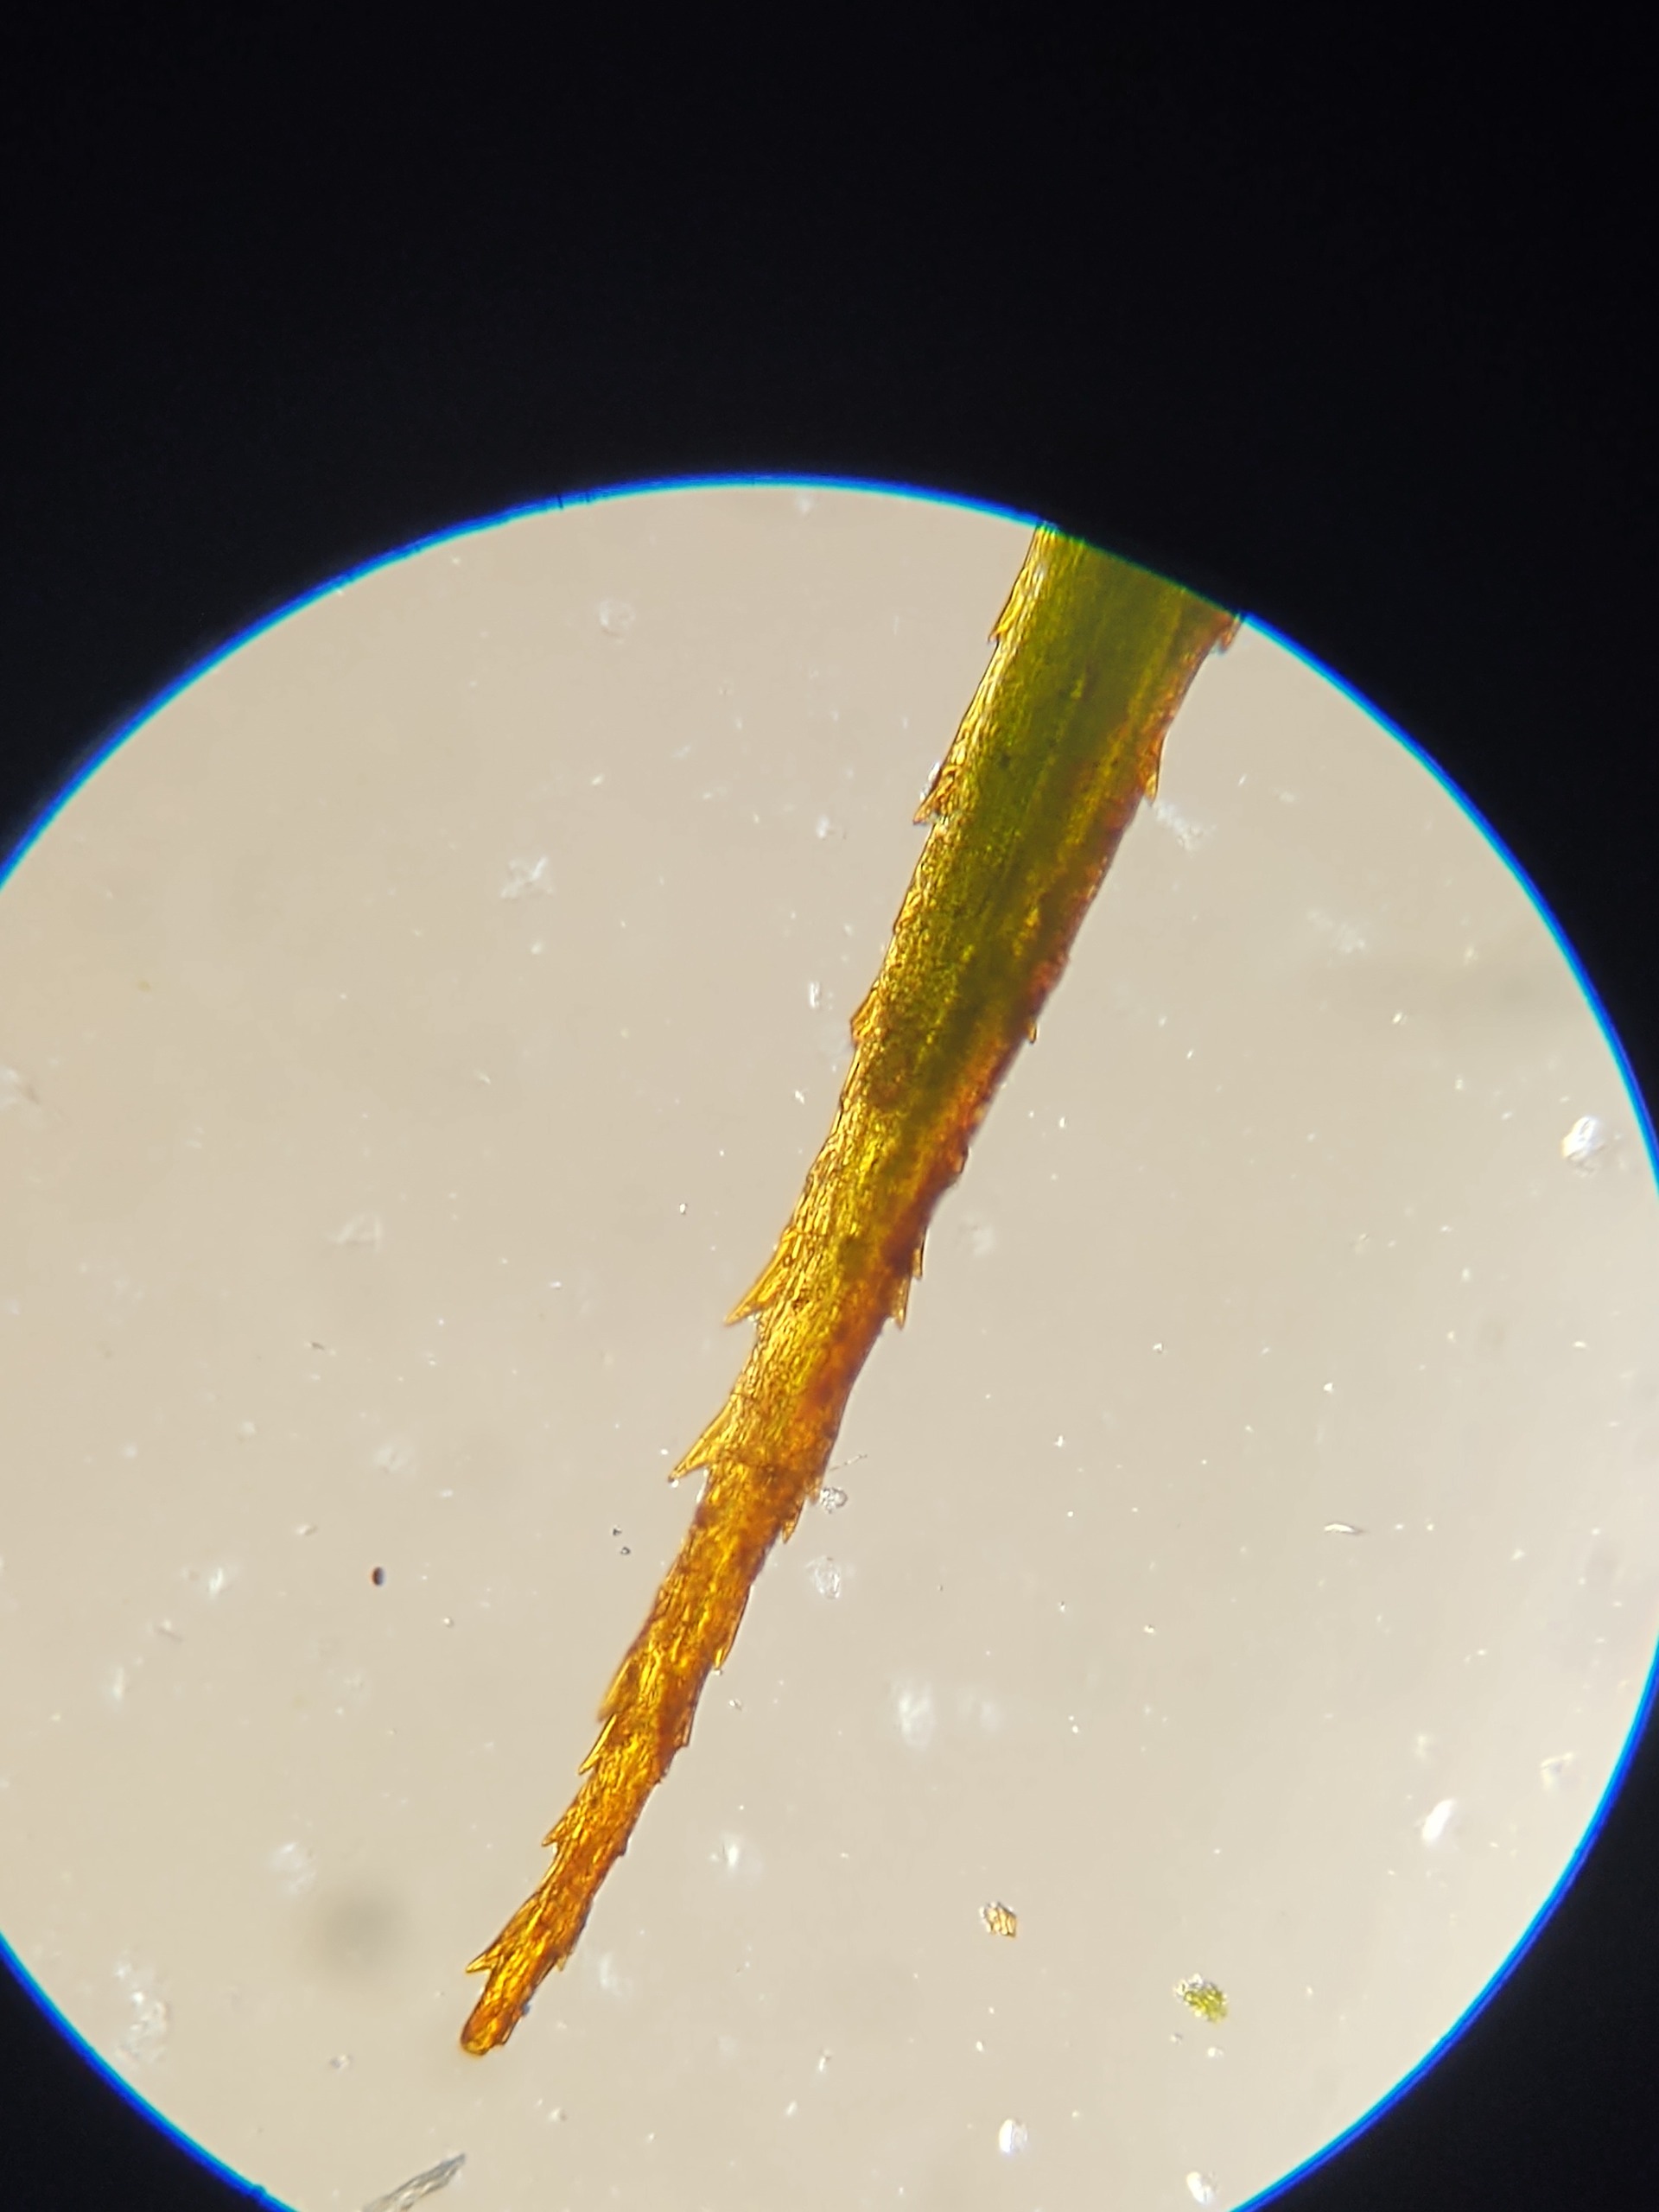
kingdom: Plantae
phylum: Bryophyta
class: Polytrichopsida
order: Polytrichales
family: Polytrichaceae
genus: Polytrichum
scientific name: Polytrichum formosum
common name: Skov-jomfruhår
